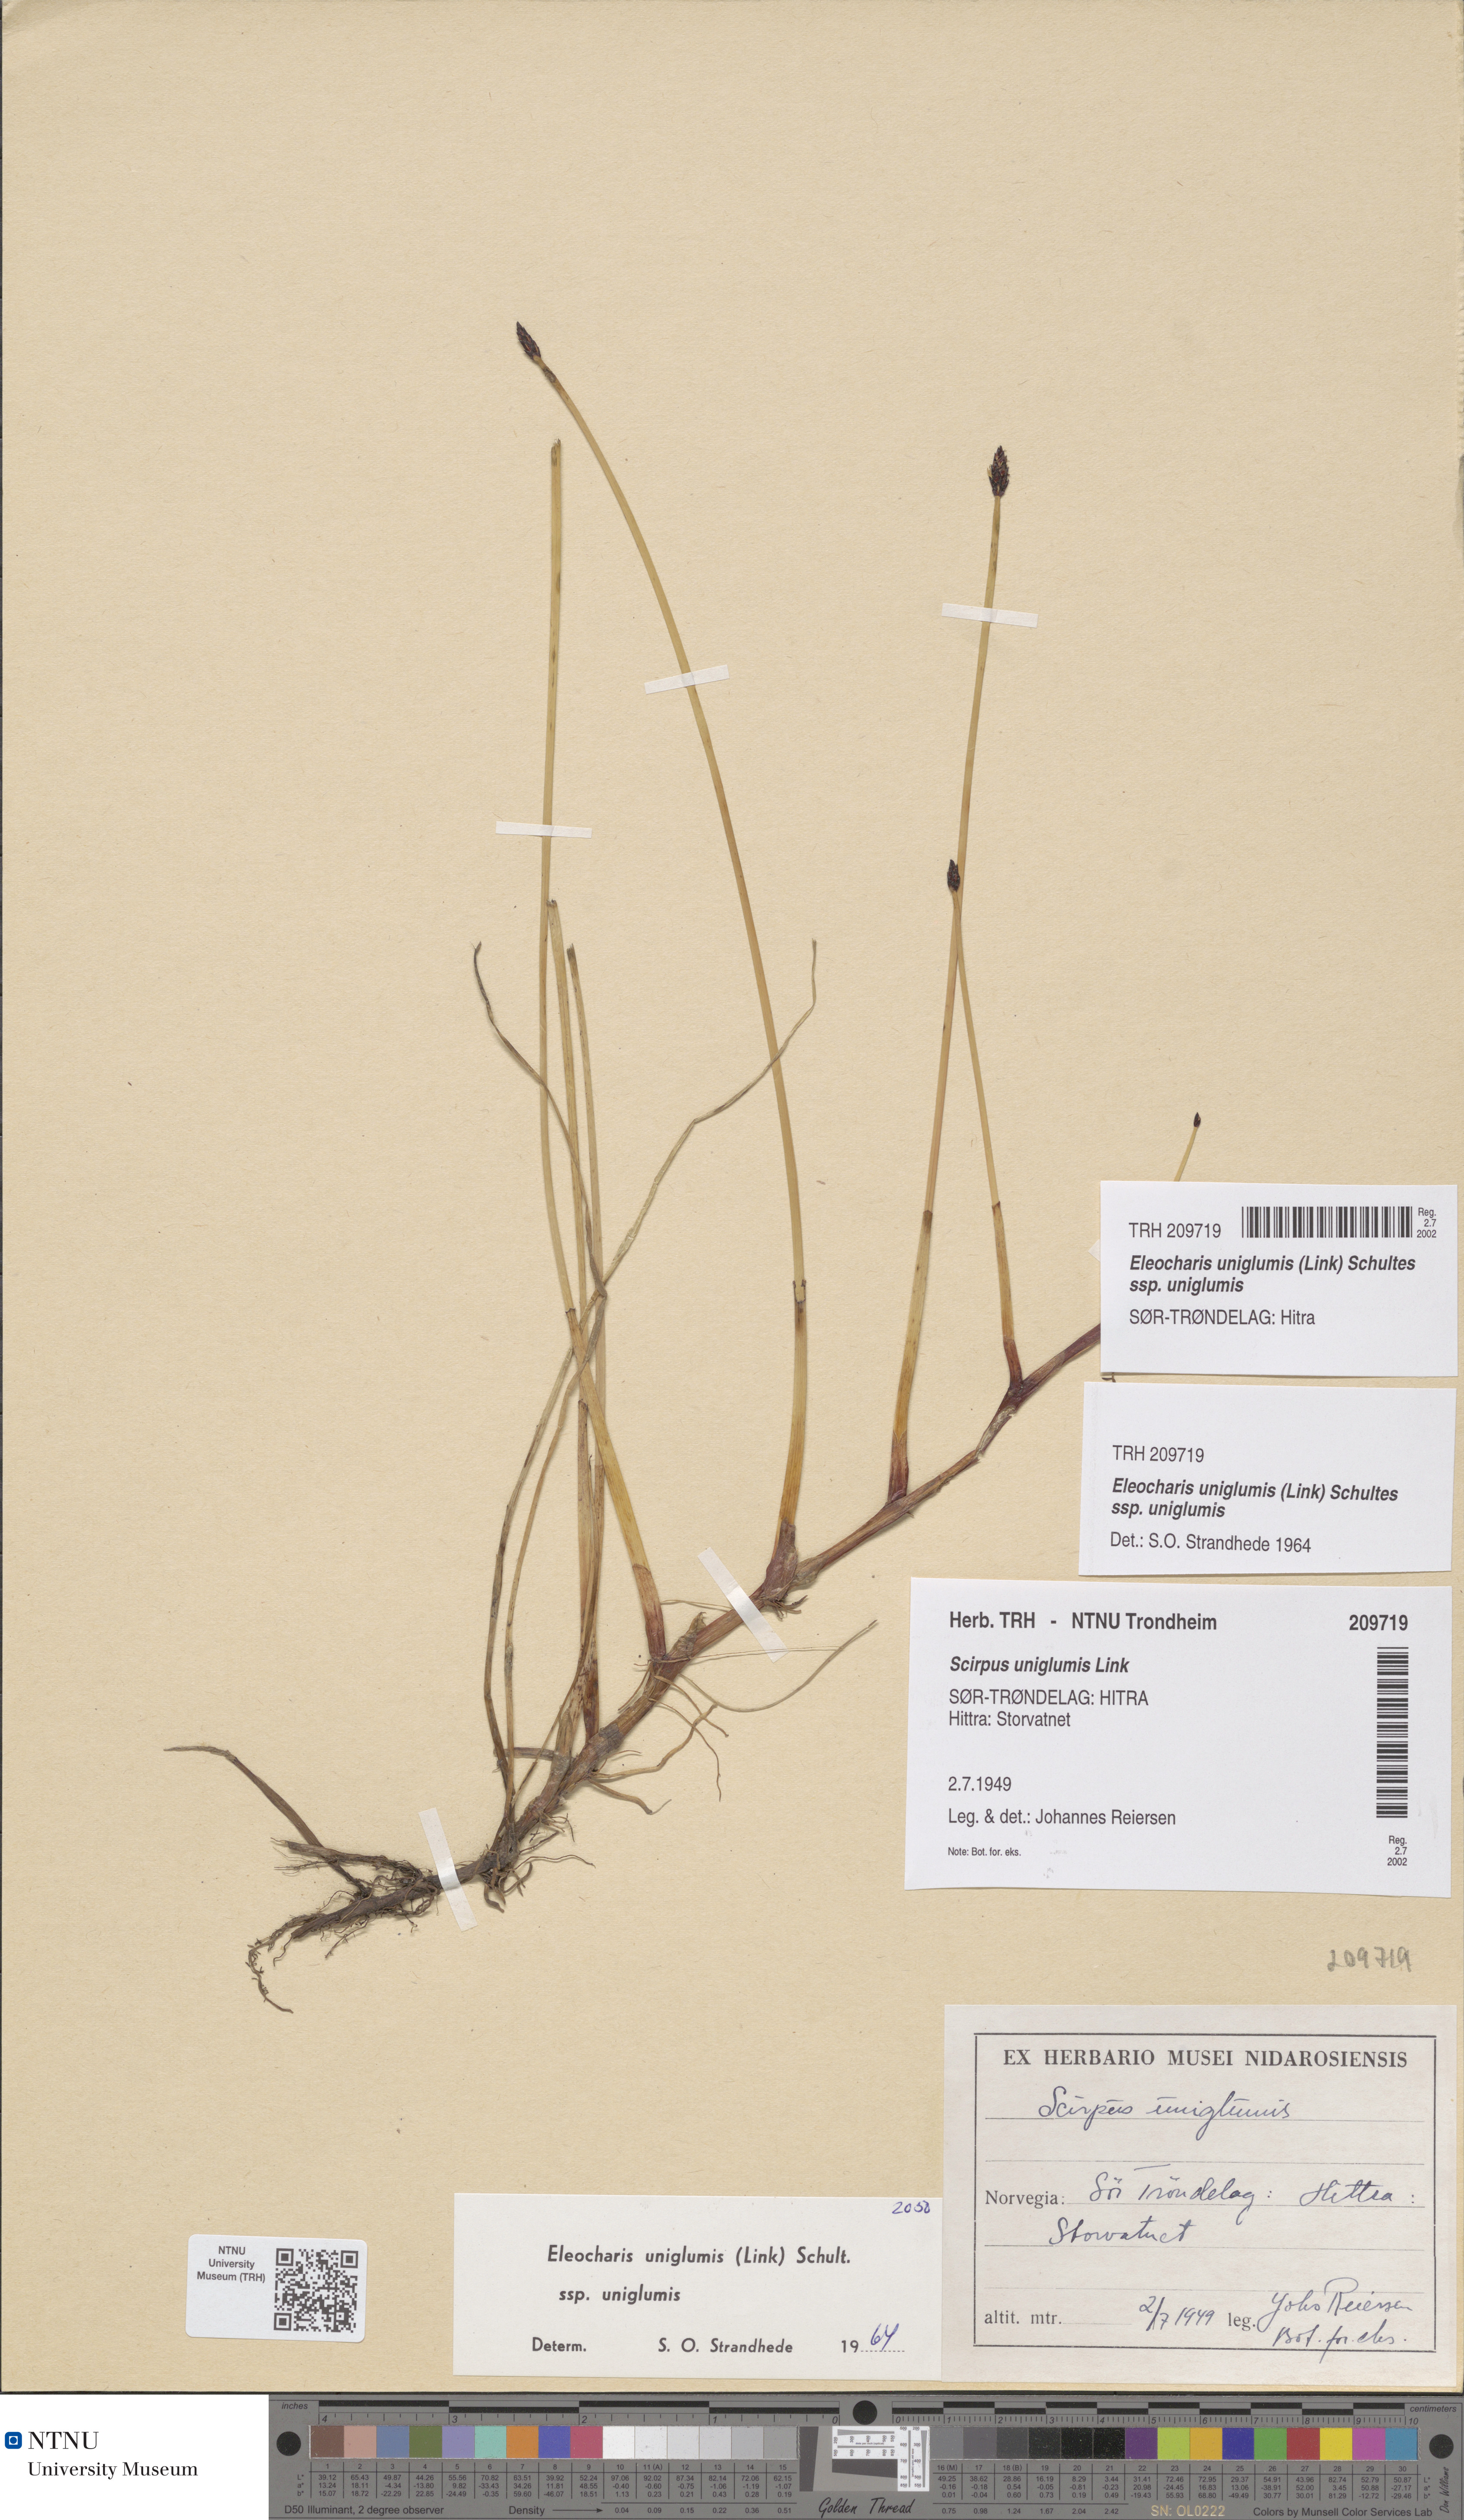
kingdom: Plantae
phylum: Tracheophyta
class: Liliopsida
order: Poales
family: Cyperaceae
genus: Eleocharis
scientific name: Eleocharis uniglumis
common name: Slender spike-rush
